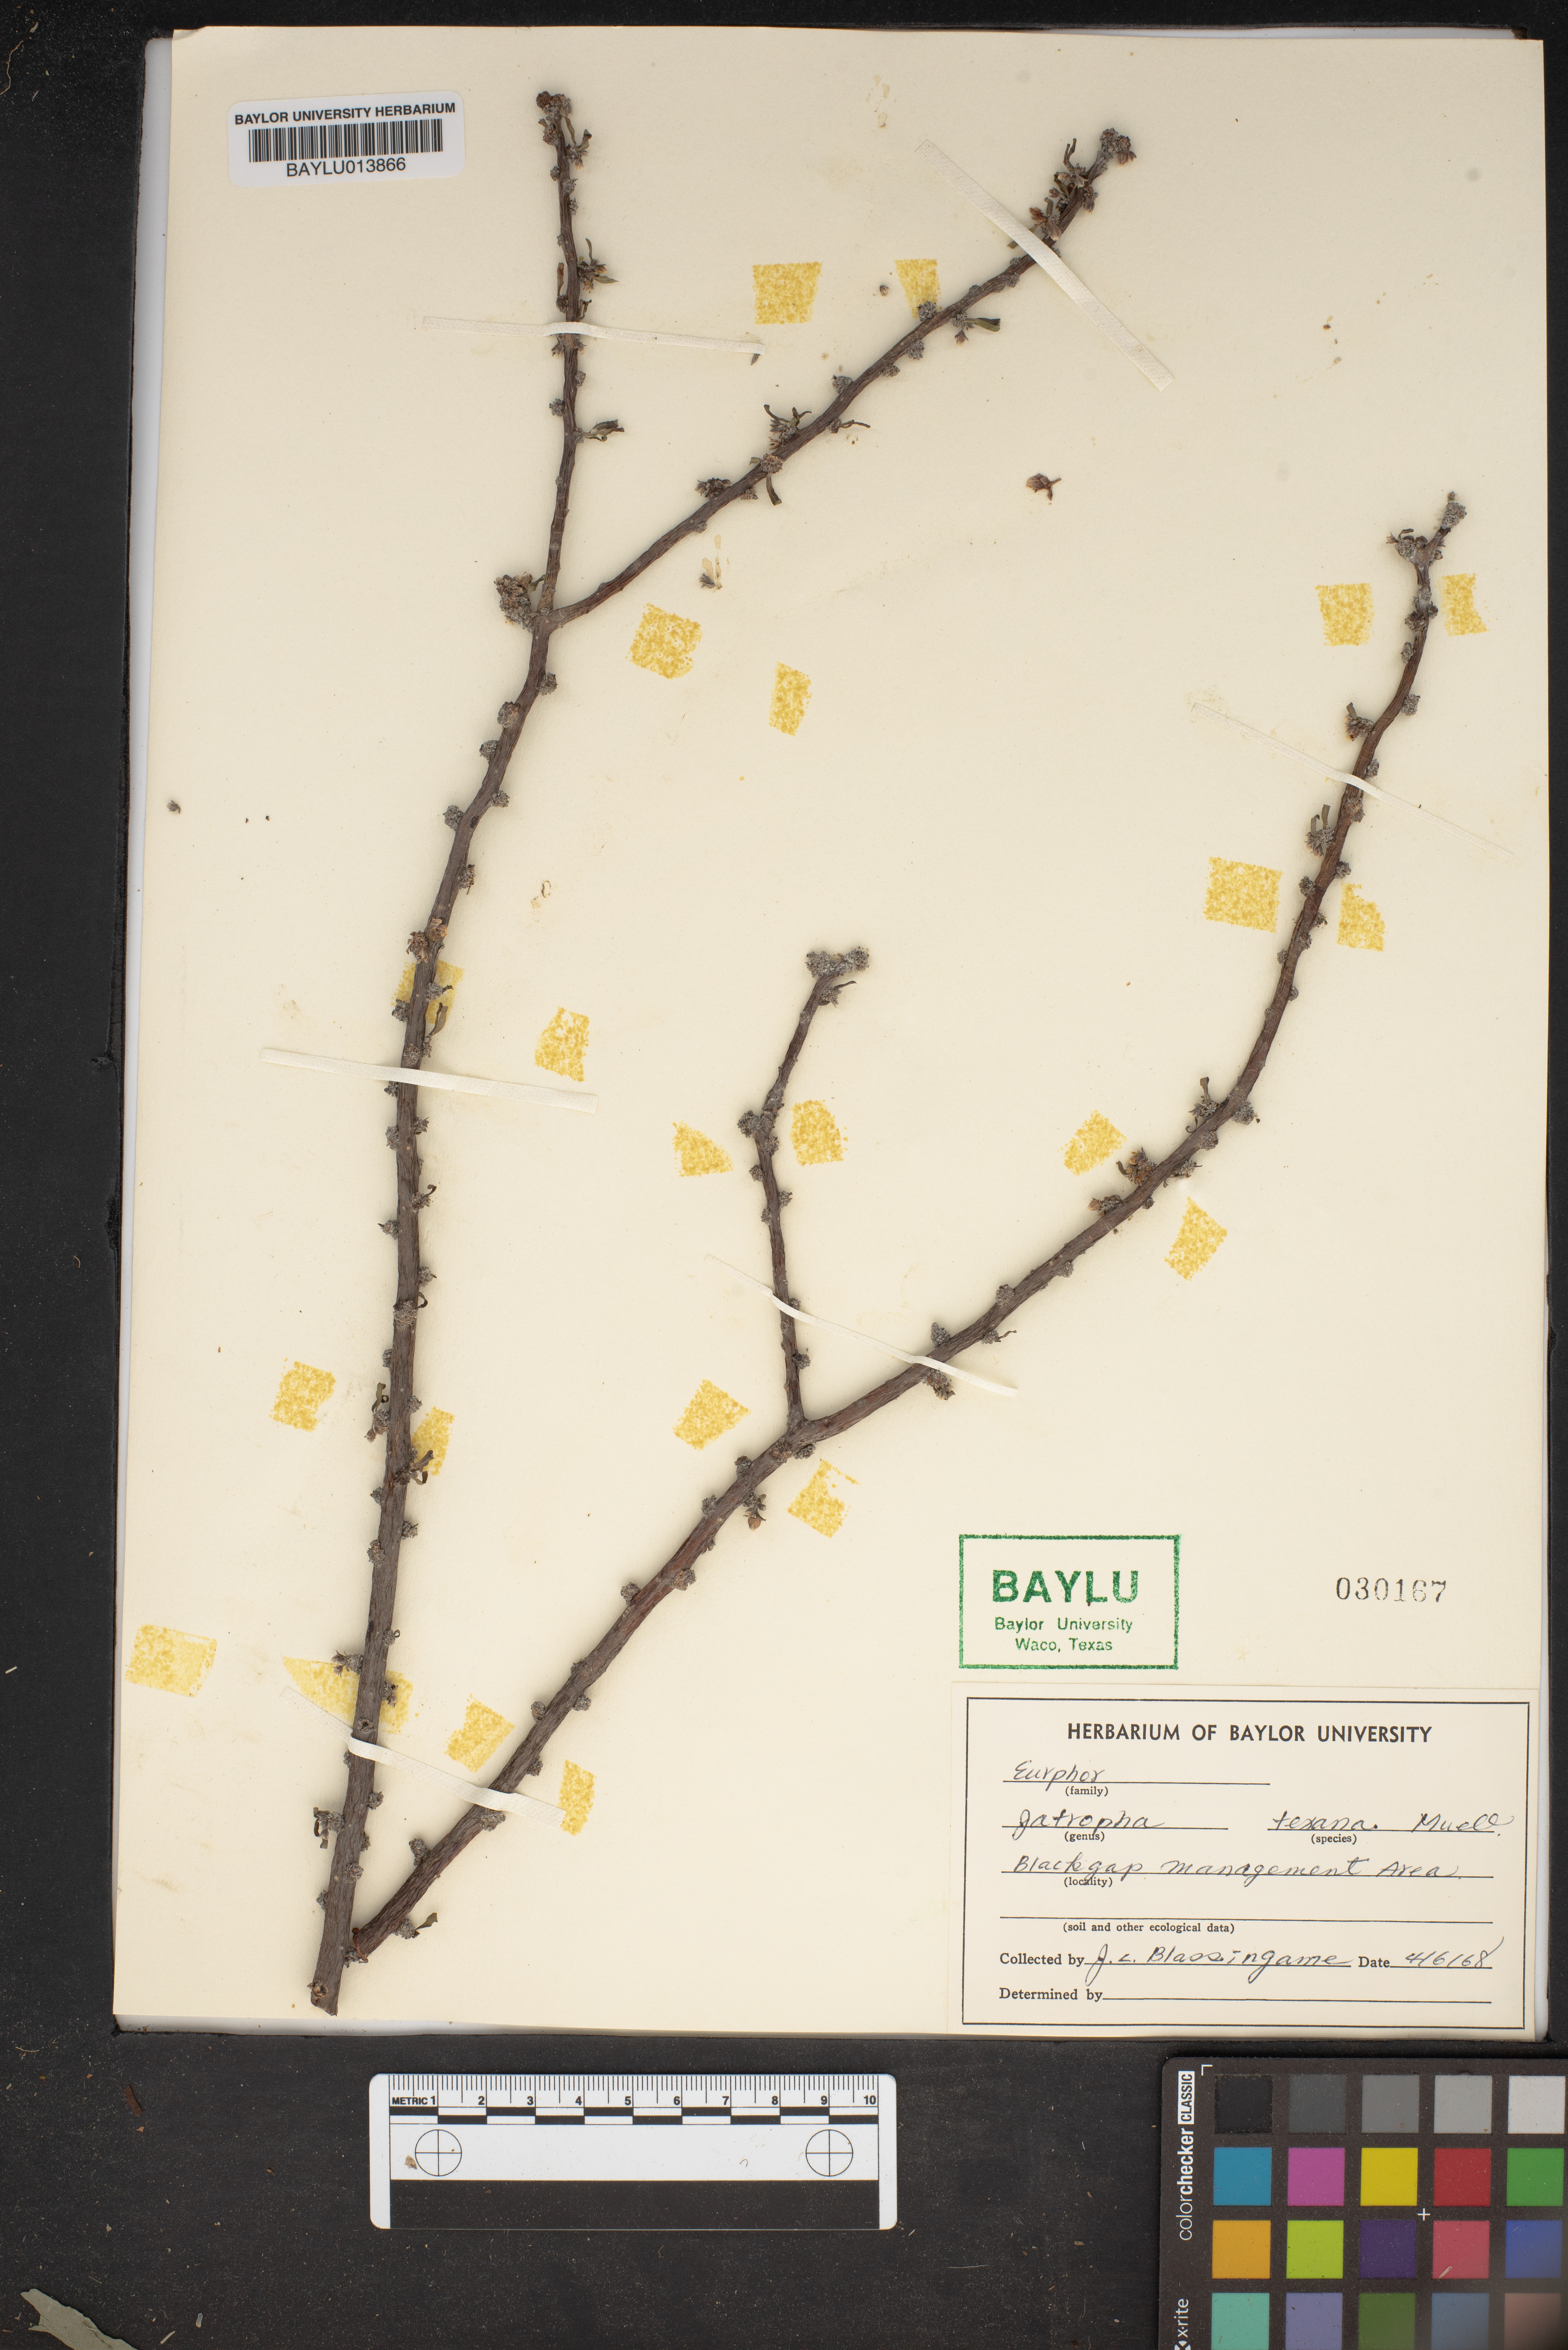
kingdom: Plantae
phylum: Tracheophyta
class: Magnoliopsida
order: Malpighiales
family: Euphorbiaceae
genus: Cnidoscolus
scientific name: Cnidoscolus texanus
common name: Texas bull-nettle
